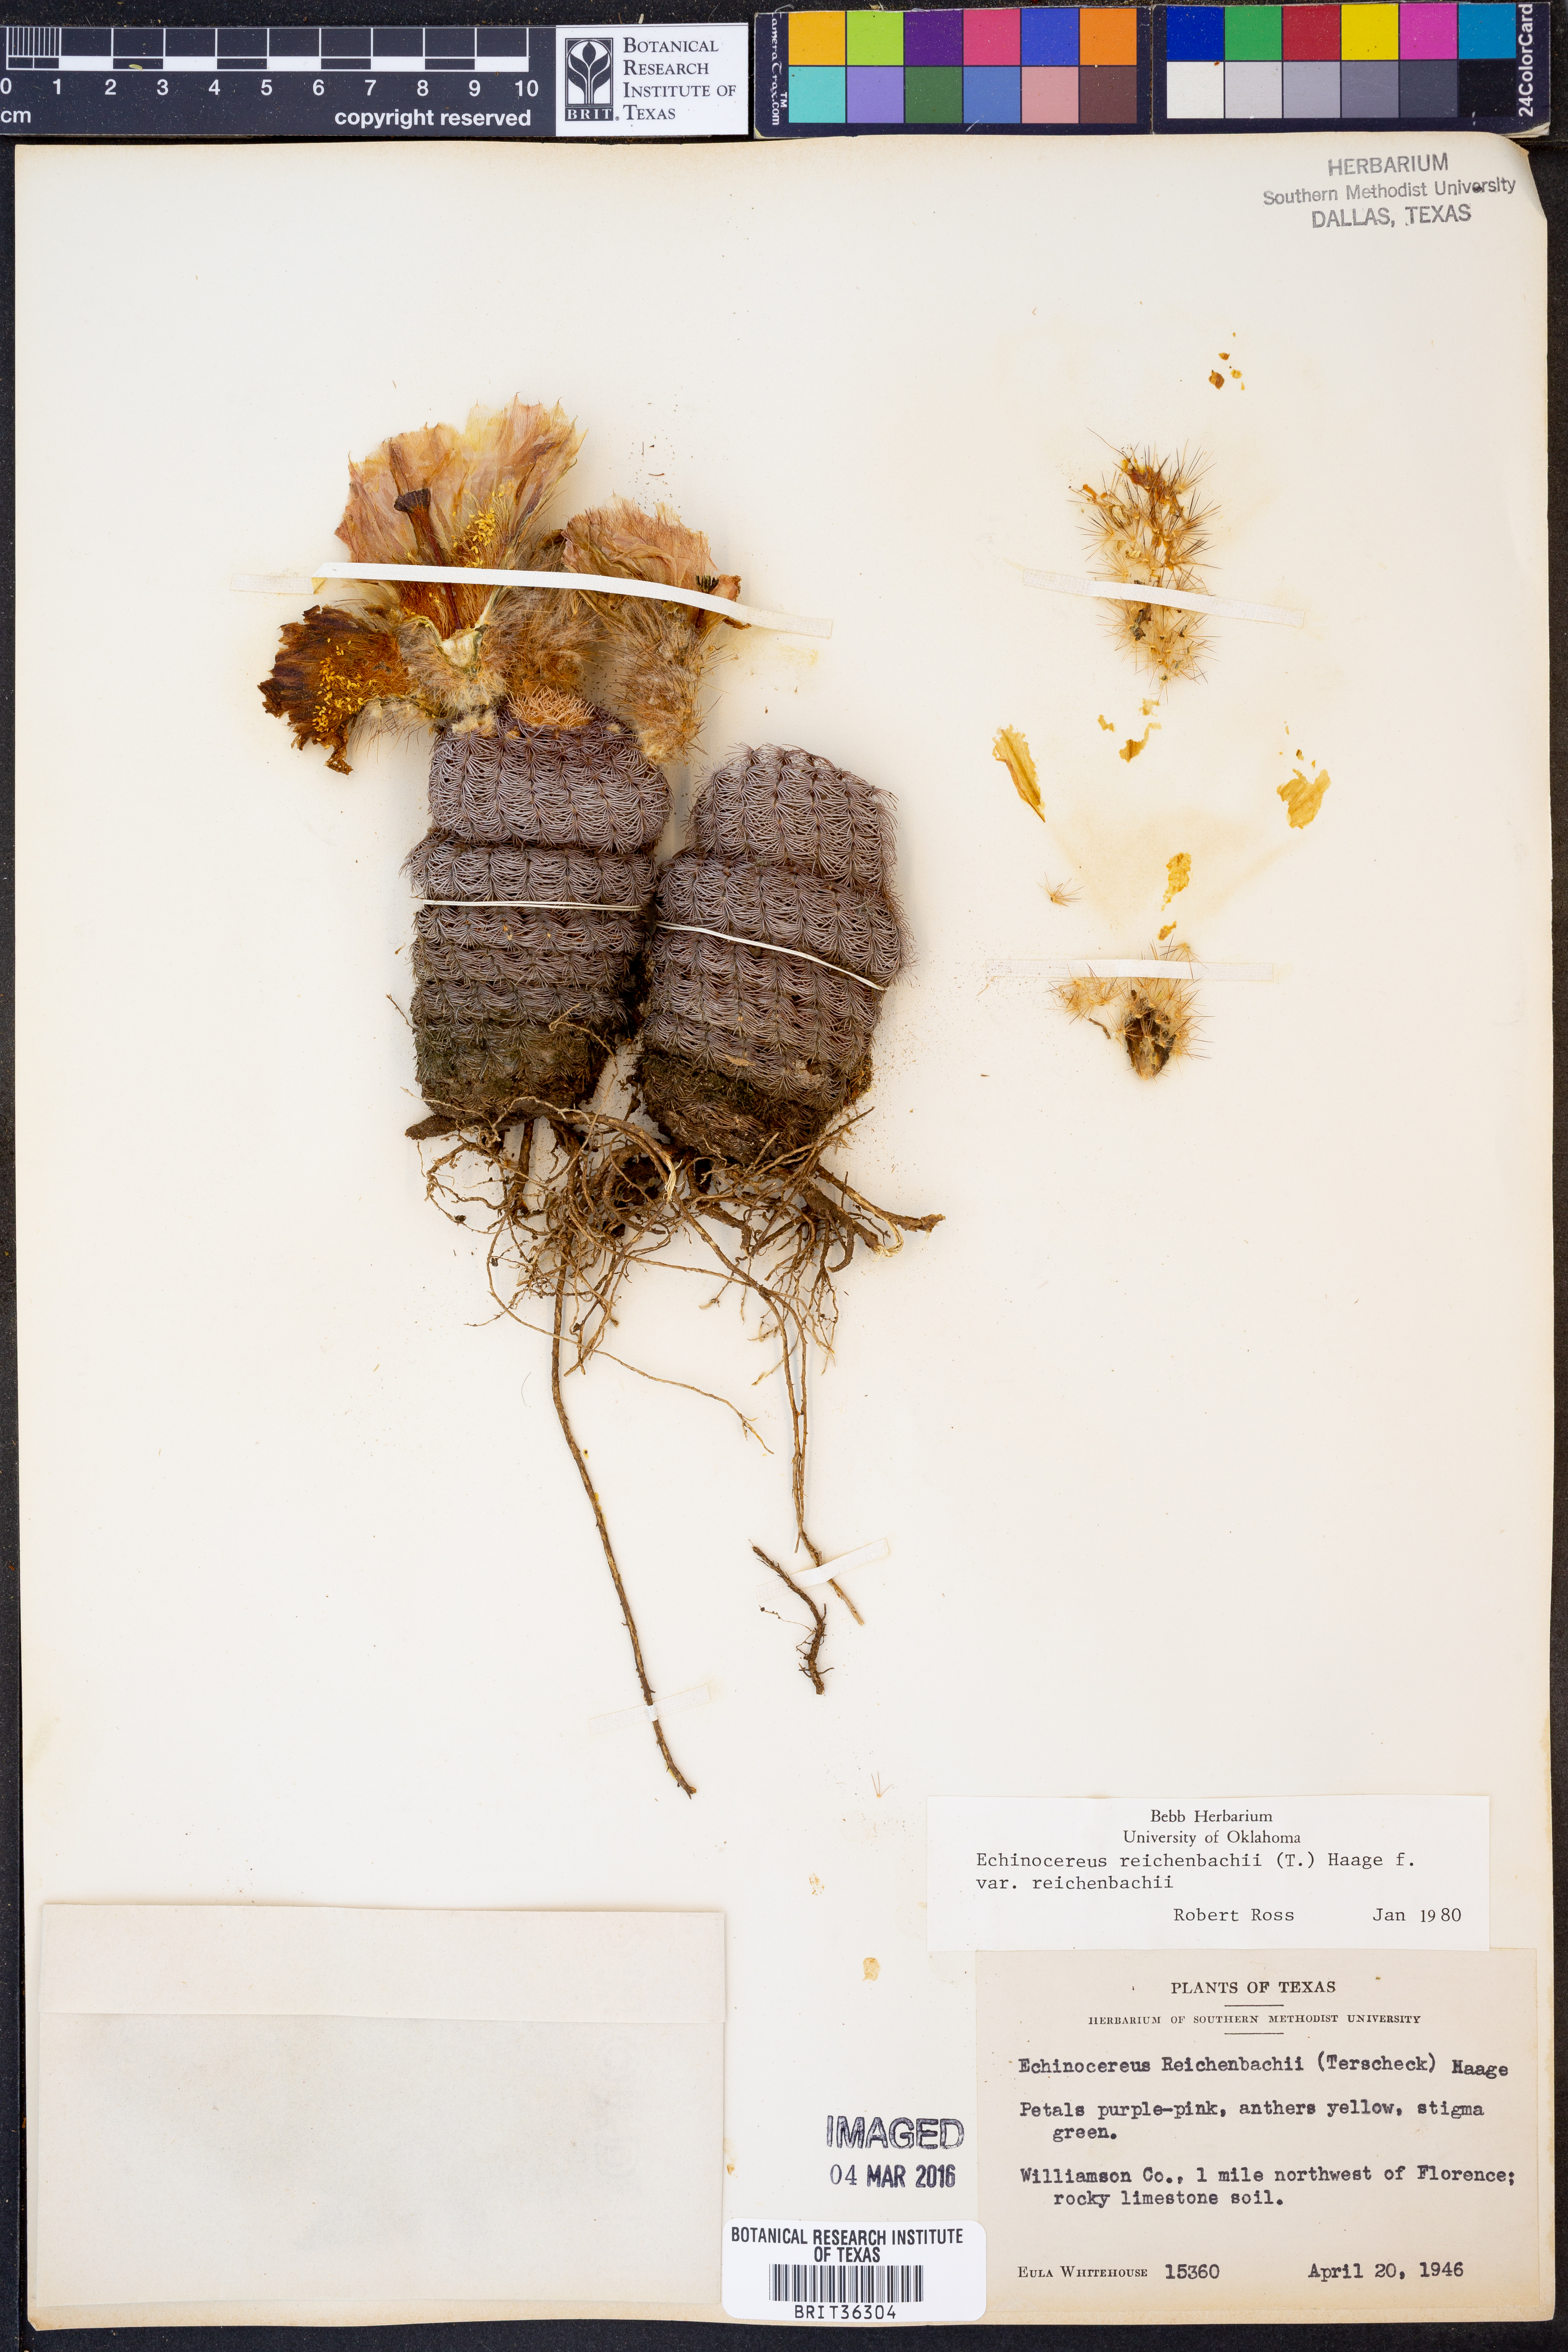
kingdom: Plantae
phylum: Tracheophyta
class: Magnoliopsida
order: Caryophyllales
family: Cactaceae
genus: Echinocereus
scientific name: Echinocereus reichenbachii
